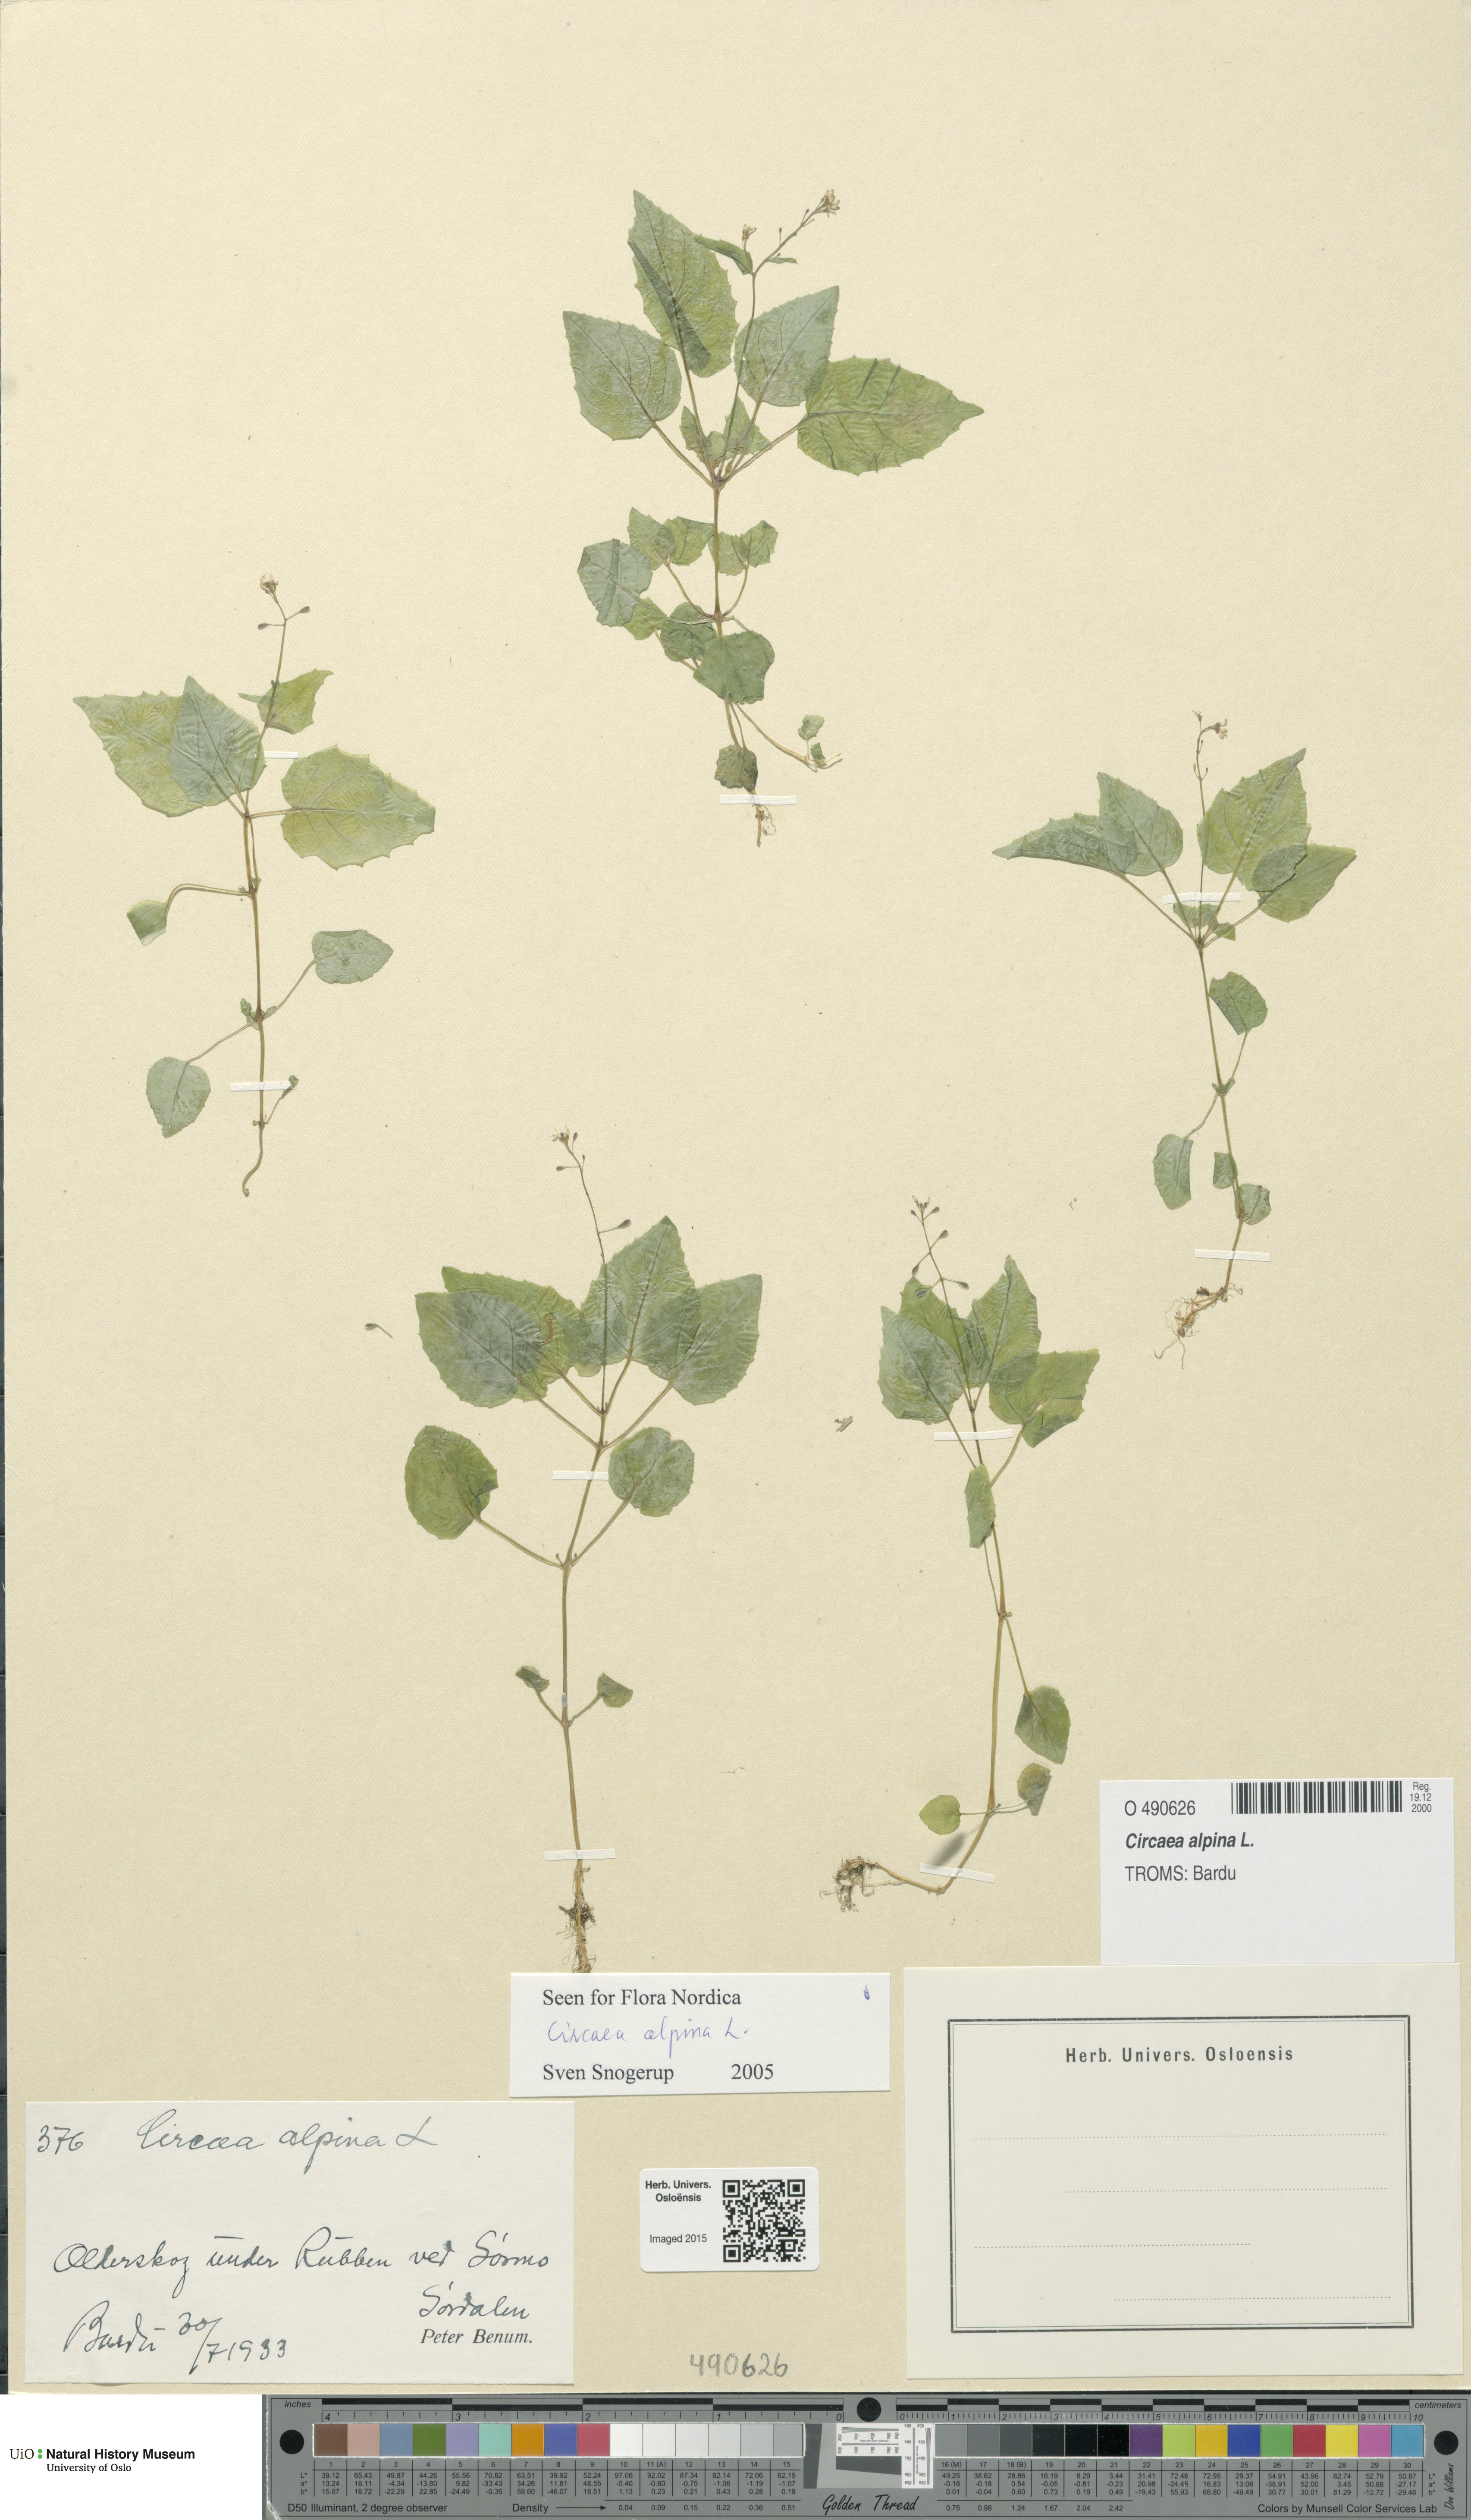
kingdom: Plantae
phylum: Tracheophyta
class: Magnoliopsida
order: Myrtales
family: Onagraceae
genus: Circaea
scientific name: Circaea alpina
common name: Alpine enchanter's-nightshade
